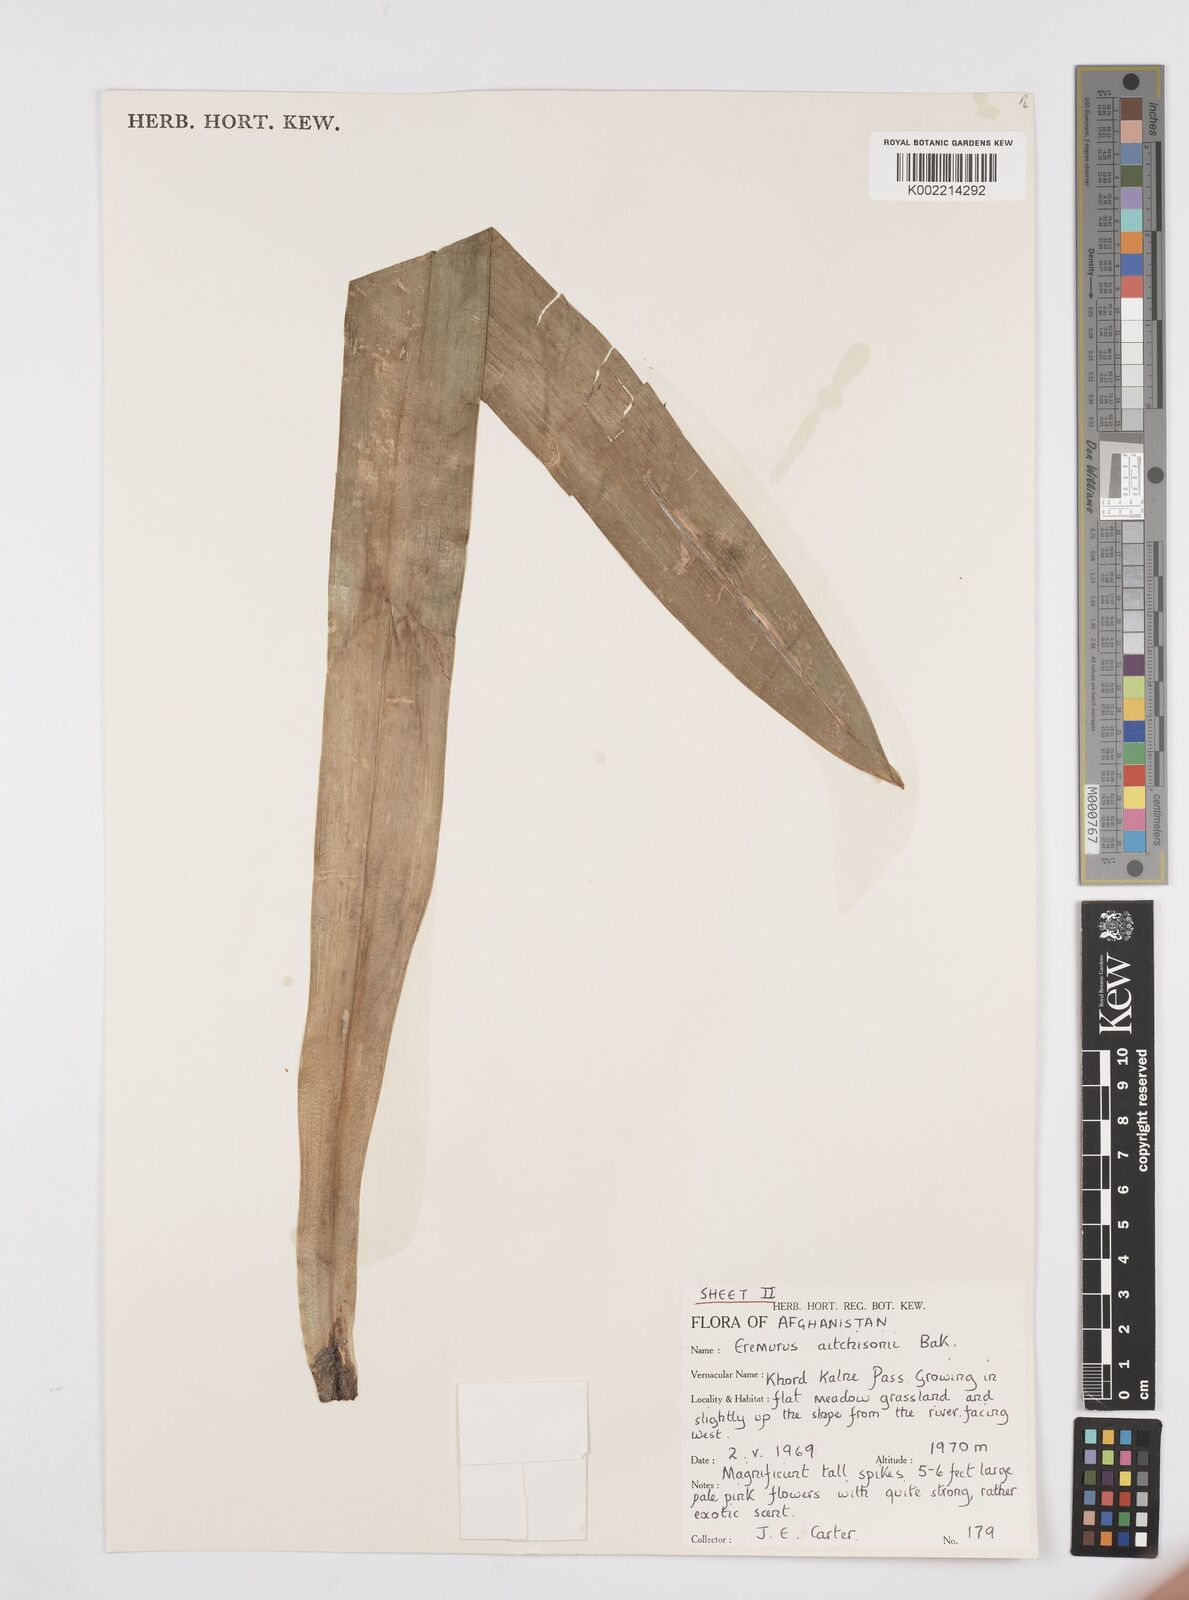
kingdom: Plantae
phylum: Tracheophyta
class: Liliopsida
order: Asparagales
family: Asphodelaceae
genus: Eremurus
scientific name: Eremurus aitchisonii
